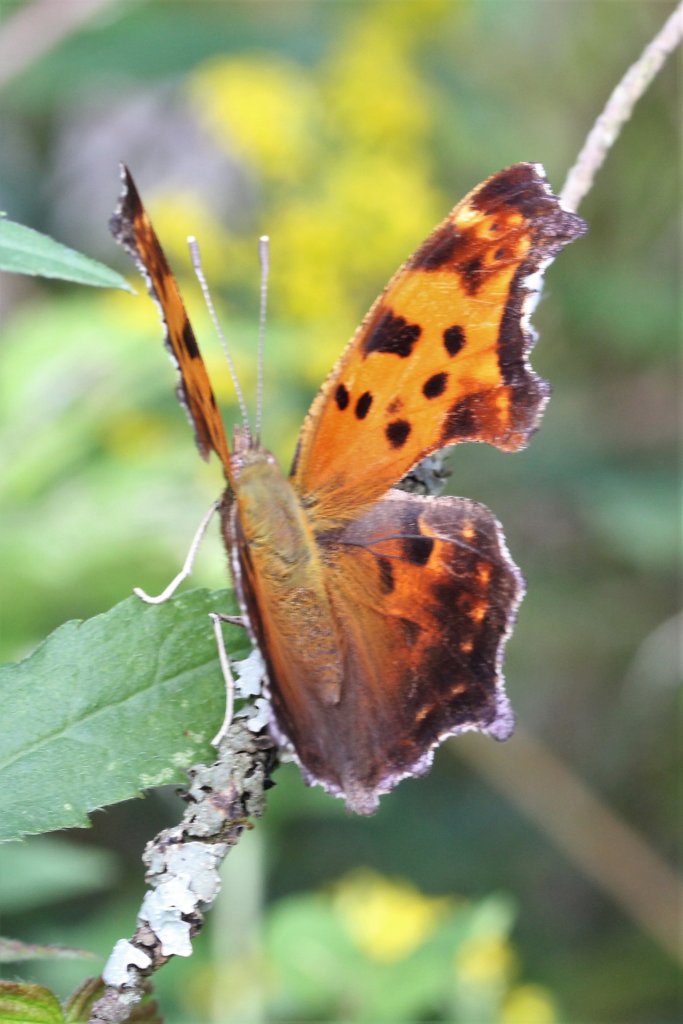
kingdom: Animalia
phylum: Arthropoda
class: Insecta
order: Lepidoptera
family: Nymphalidae
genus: Polygonia
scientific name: Polygonia comma
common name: Eastern Comma
